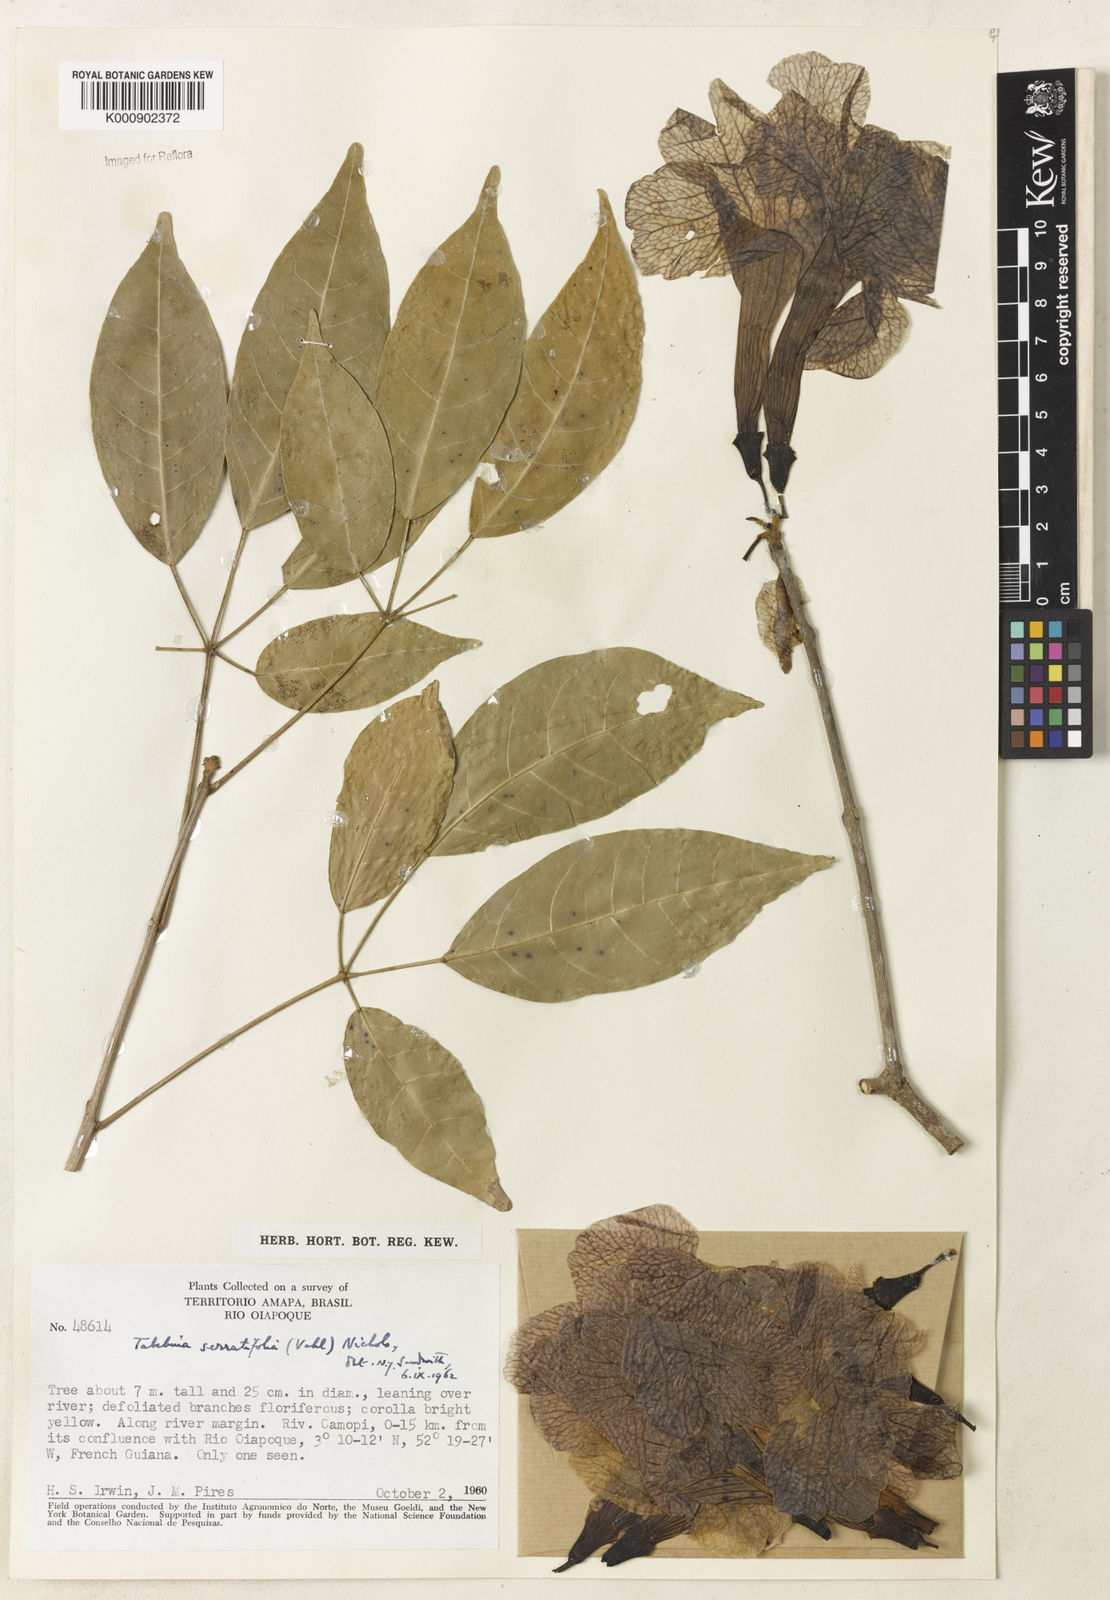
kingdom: Plantae
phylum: Tracheophyta
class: Magnoliopsida
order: Lamiales
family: Bignoniaceae
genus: Handroanthus
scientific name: Handroanthus serratifolius
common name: Yellow ipe
